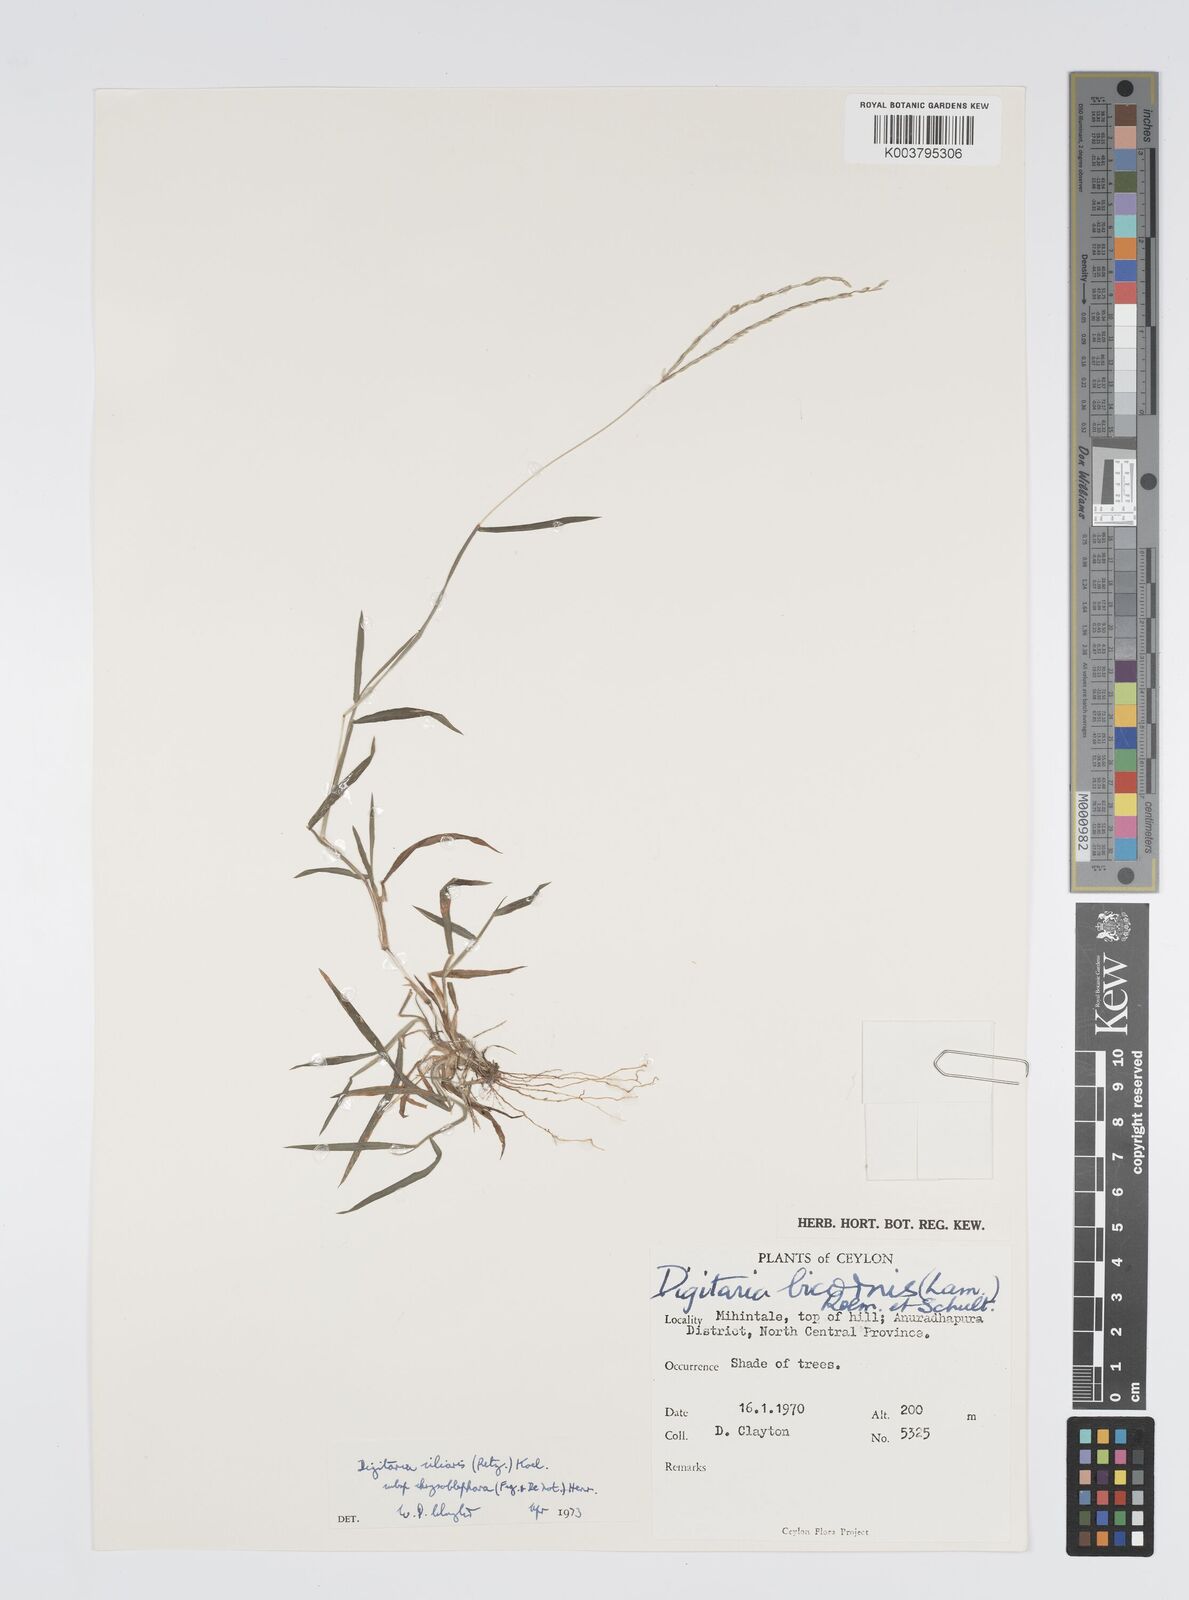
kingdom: Plantae
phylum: Tracheophyta
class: Liliopsida
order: Poales
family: Poaceae
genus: Digitaria
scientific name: Digitaria ciliaris
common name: Tropical finger-grass
